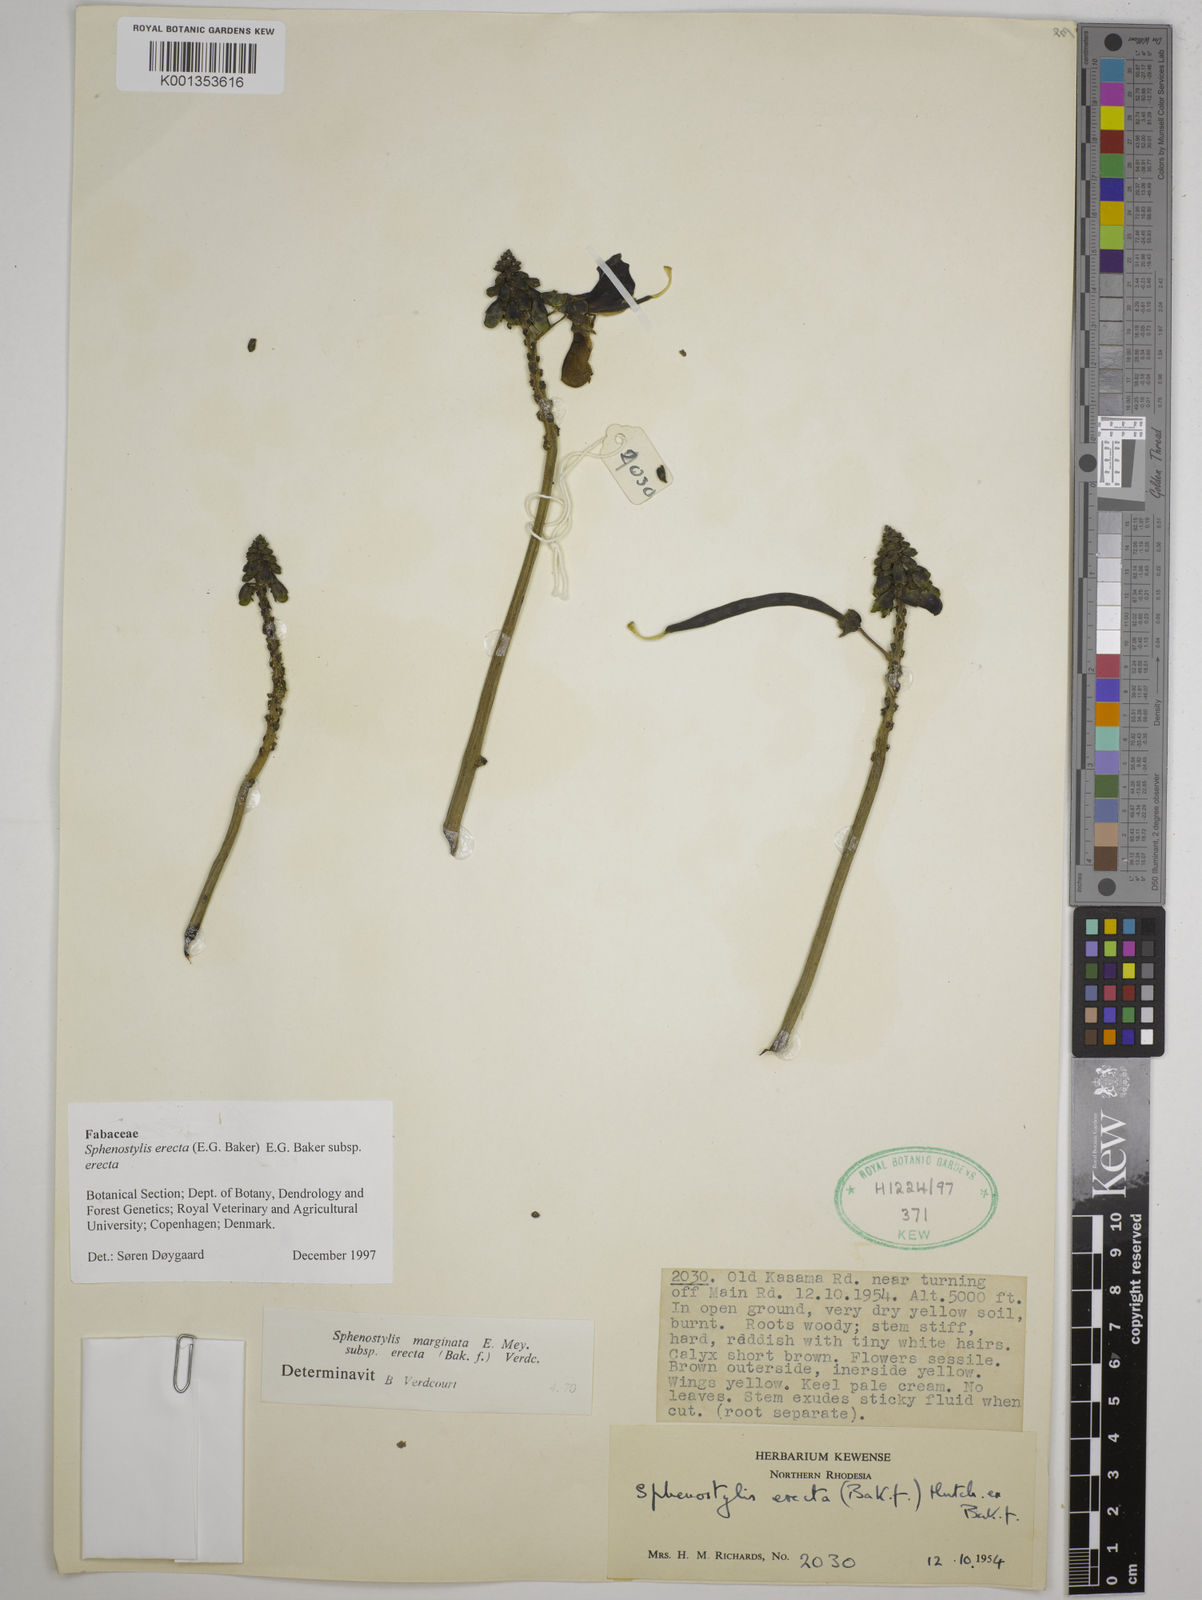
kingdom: Plantae
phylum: Tracheophyta
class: Magnoliopsida
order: Fabales
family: Fabaceae
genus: Sphenostylis
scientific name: Sphenostylis erecta
